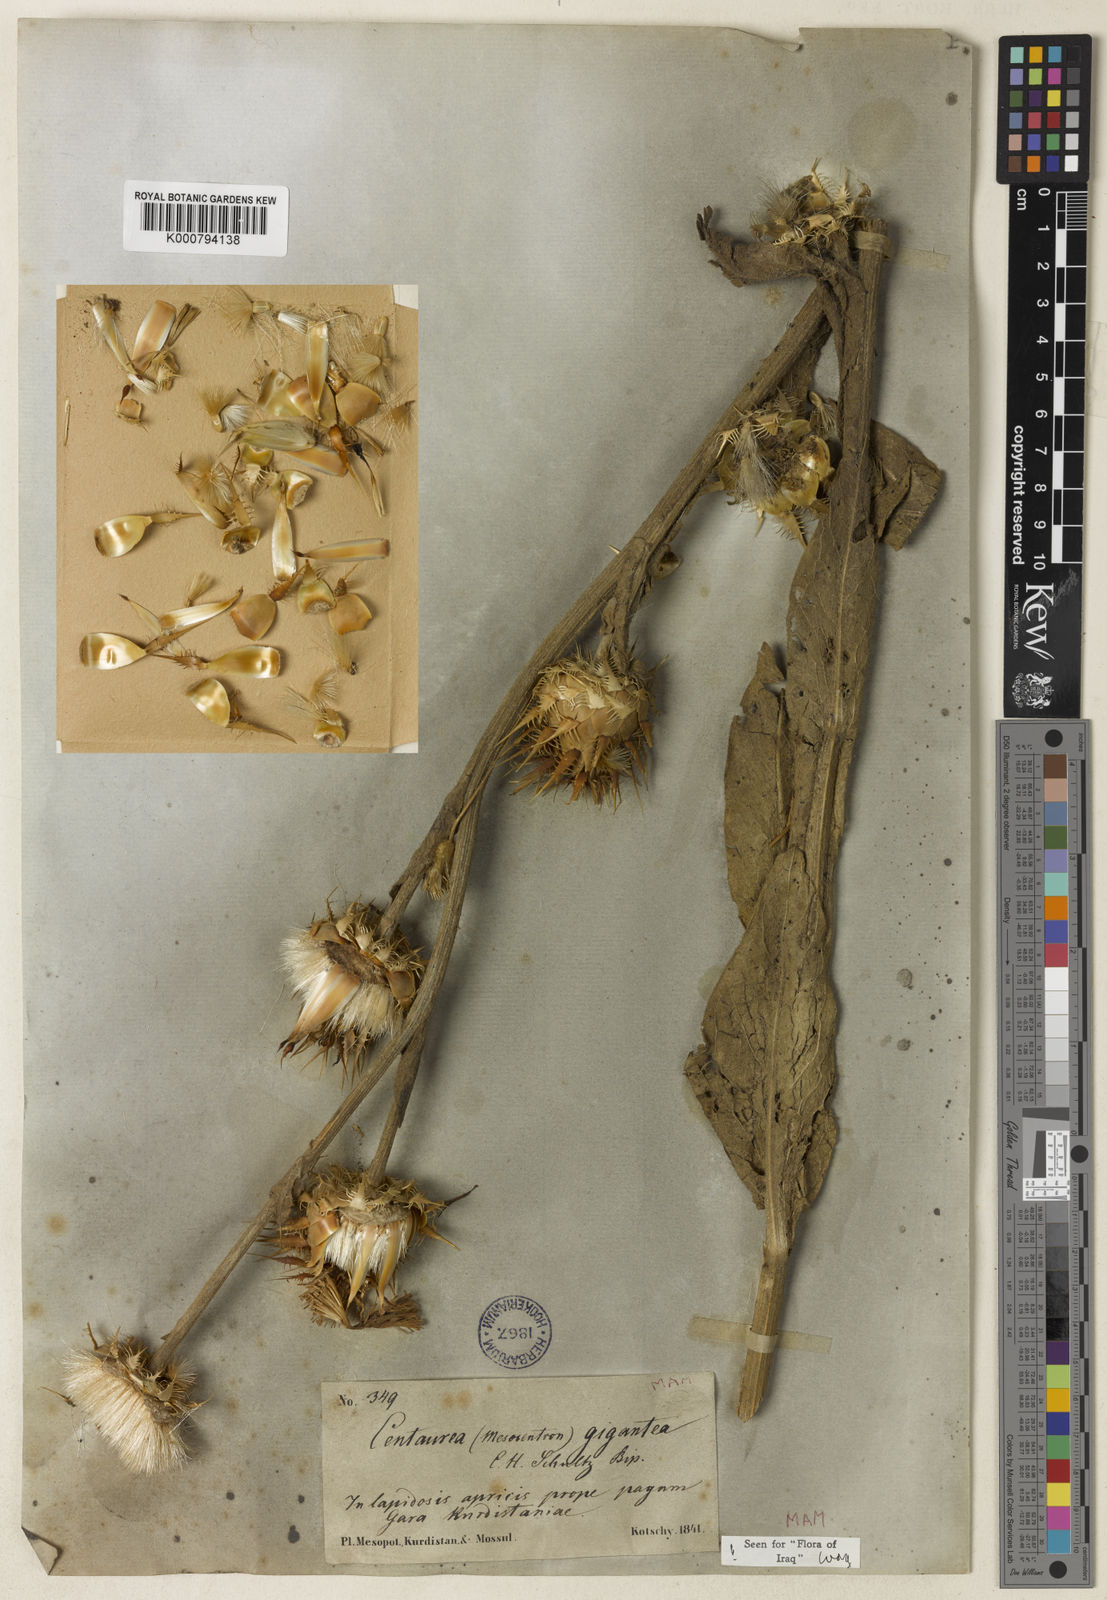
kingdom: Plantae
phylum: Tracheophyta
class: Magnoliopsida
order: Asterales
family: Asteraceae
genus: Centaurea
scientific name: Centaurea gigantea
